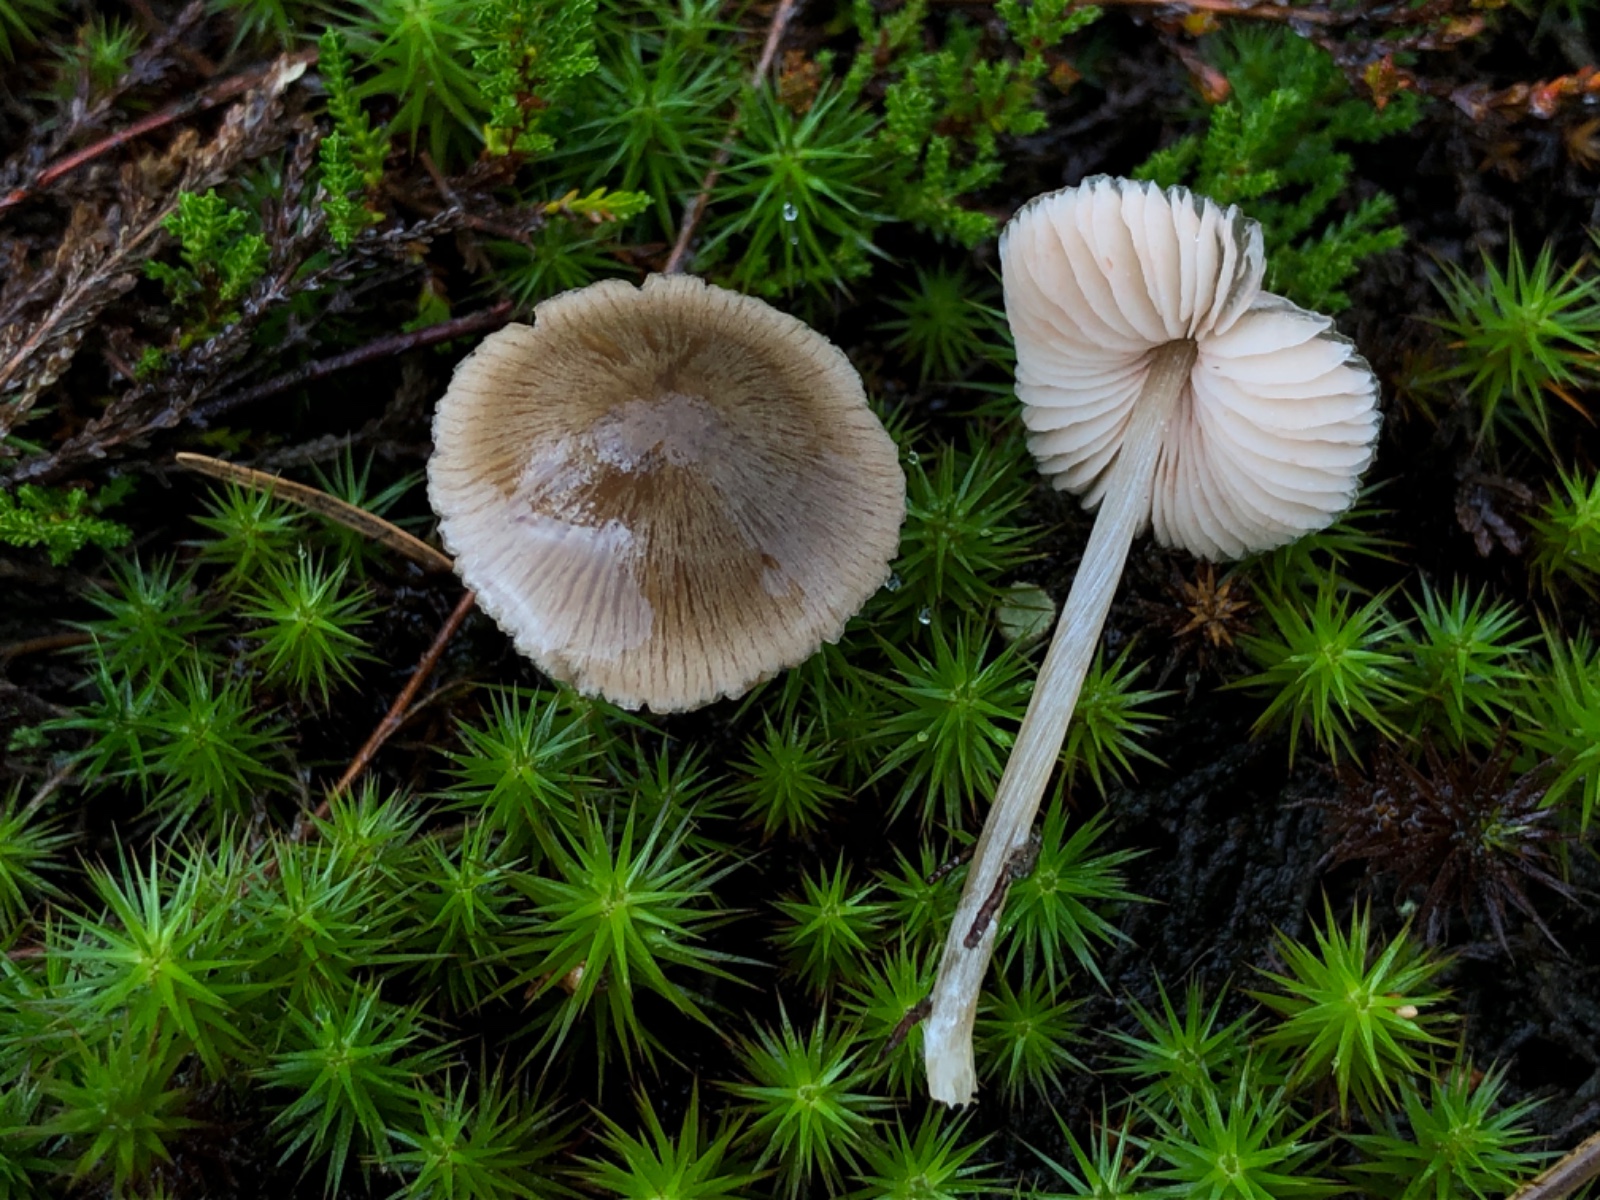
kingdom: Fungi
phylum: Basidiomycota
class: Agaricomycetes
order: Agaricales
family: Entolomataceae
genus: Entoloma
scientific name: Entoloma
